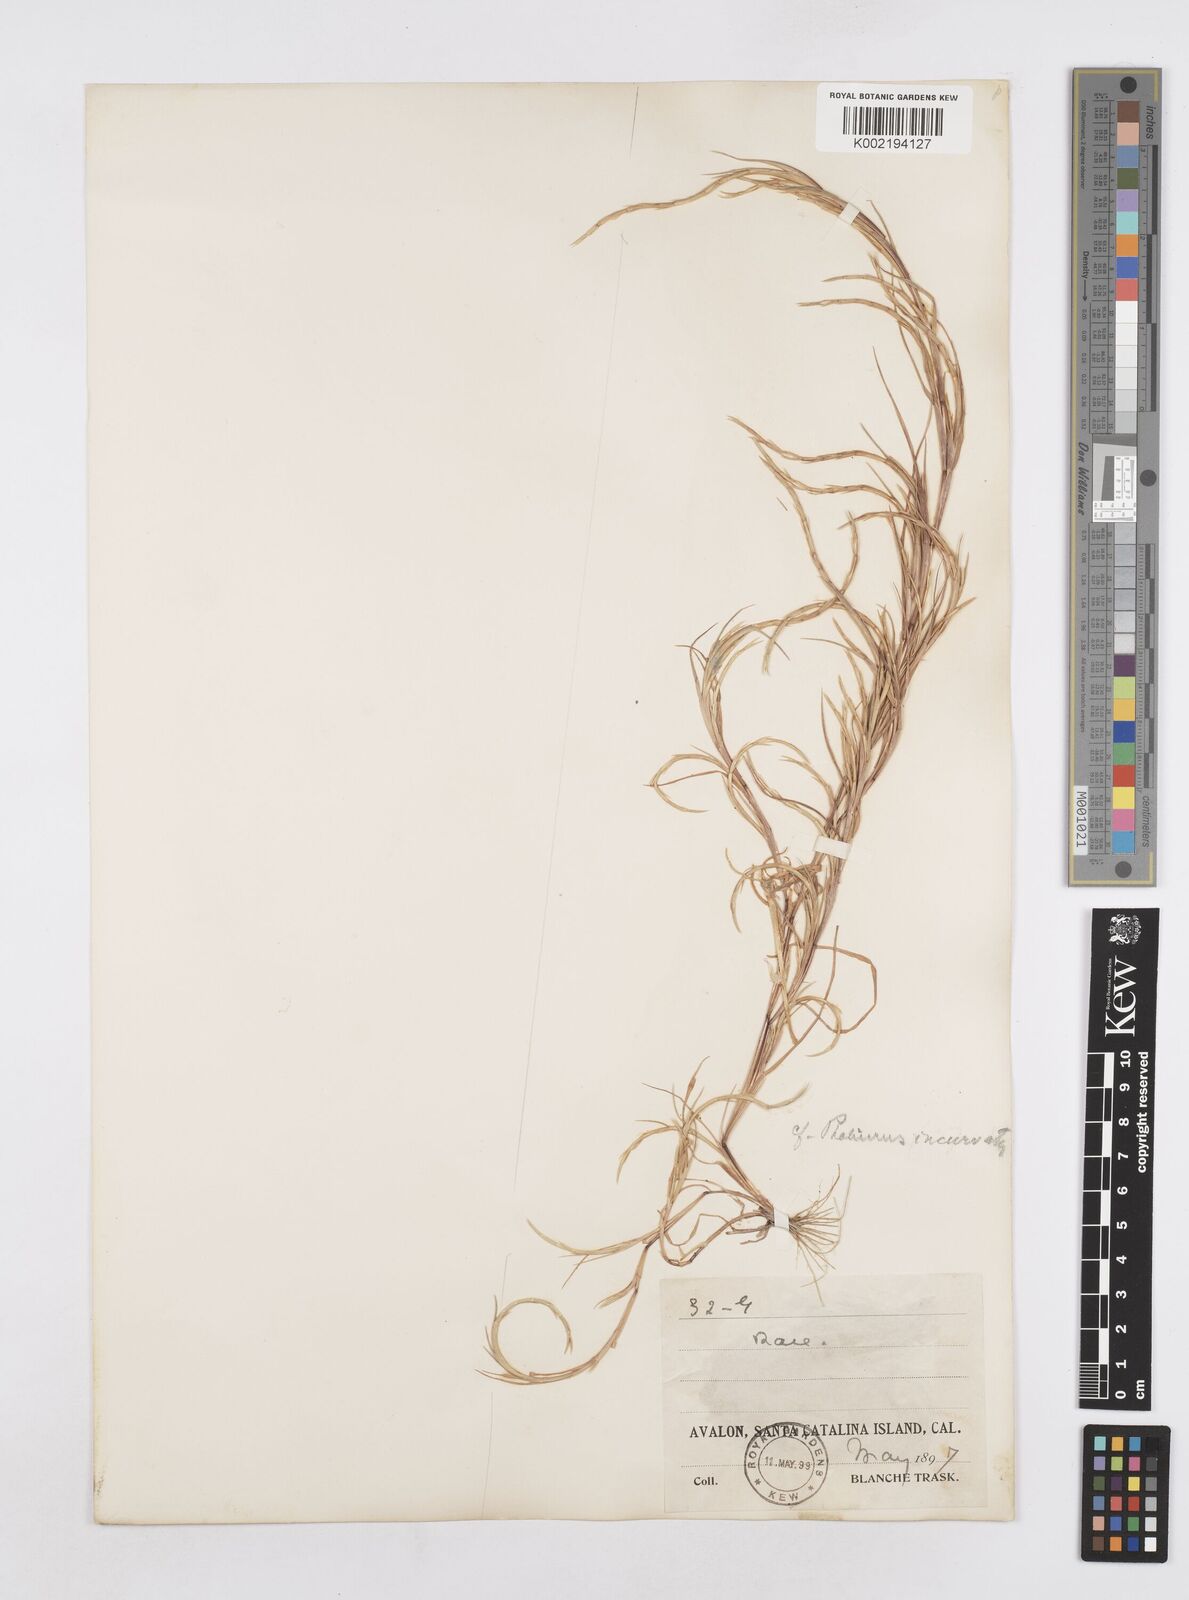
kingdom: Plantae
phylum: Tracheophyta
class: Liliopsida
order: Poales
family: Poaceae
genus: Parapholis
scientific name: Parapholis incurva
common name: Curved sicklegrass
